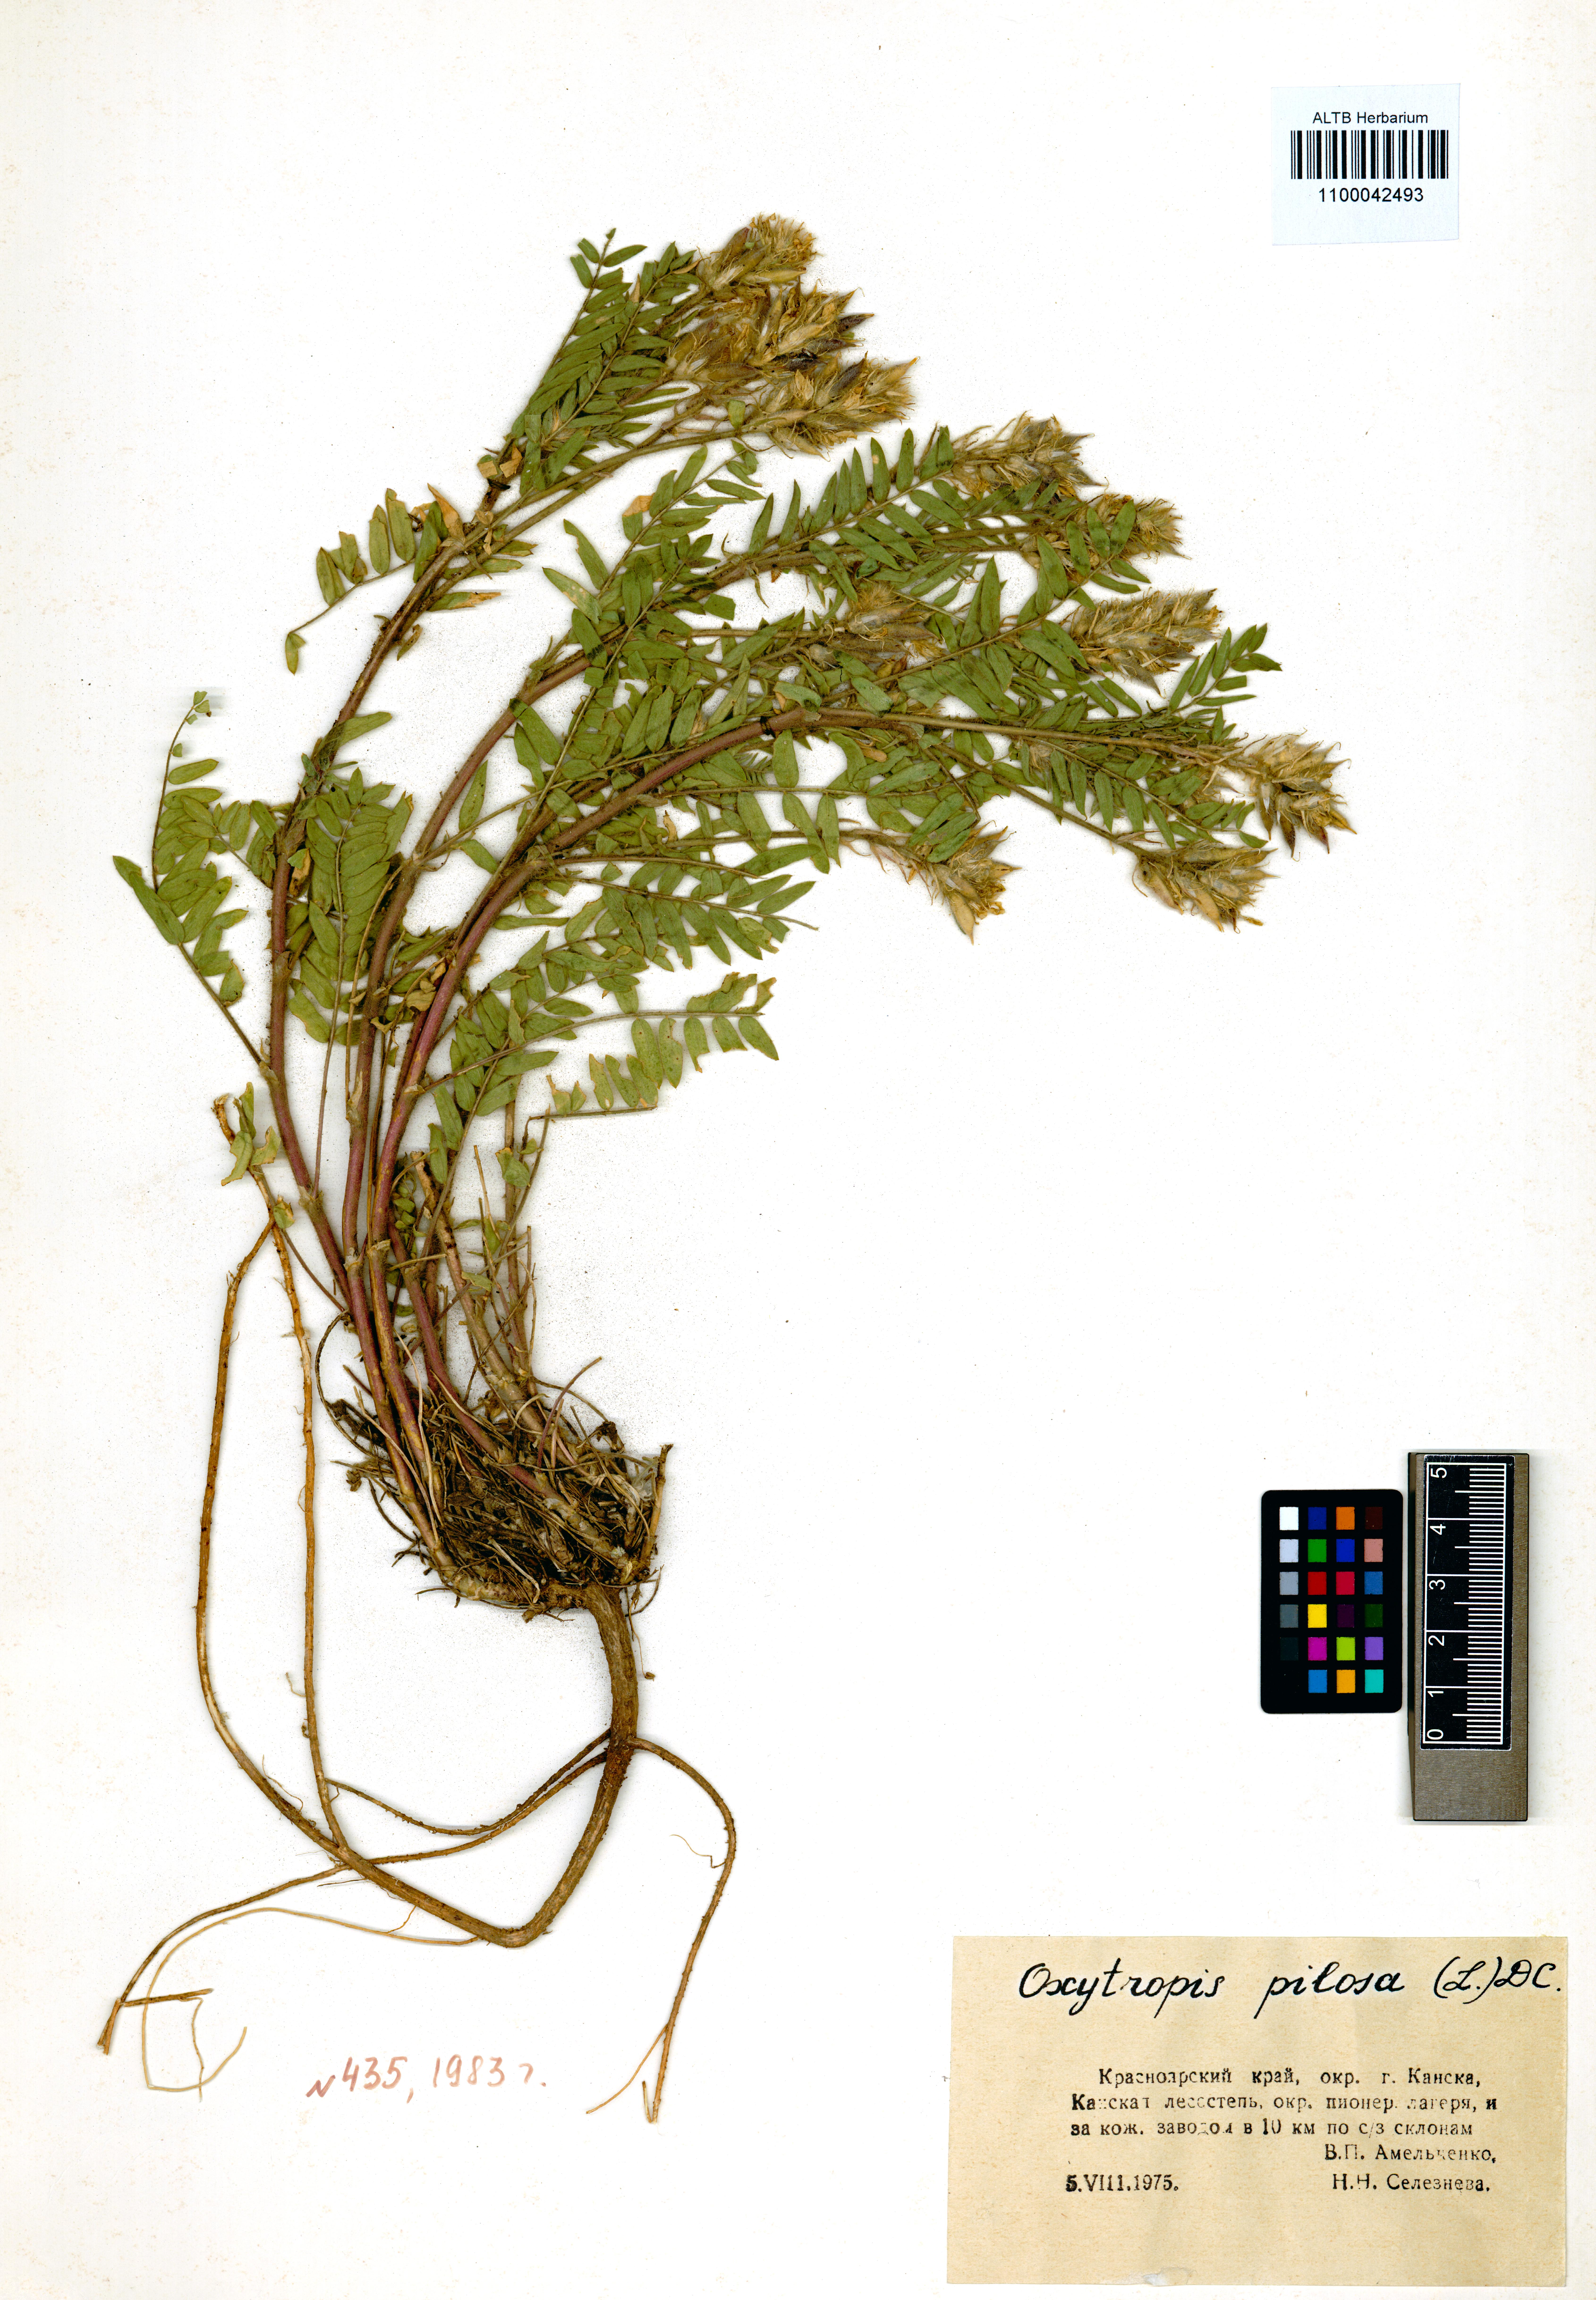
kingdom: Plantae
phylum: Tracheophyta
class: Magnoliopsida
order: Fabales
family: Fabaceae
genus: Oxytropis
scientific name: Oxytropis pilosa
